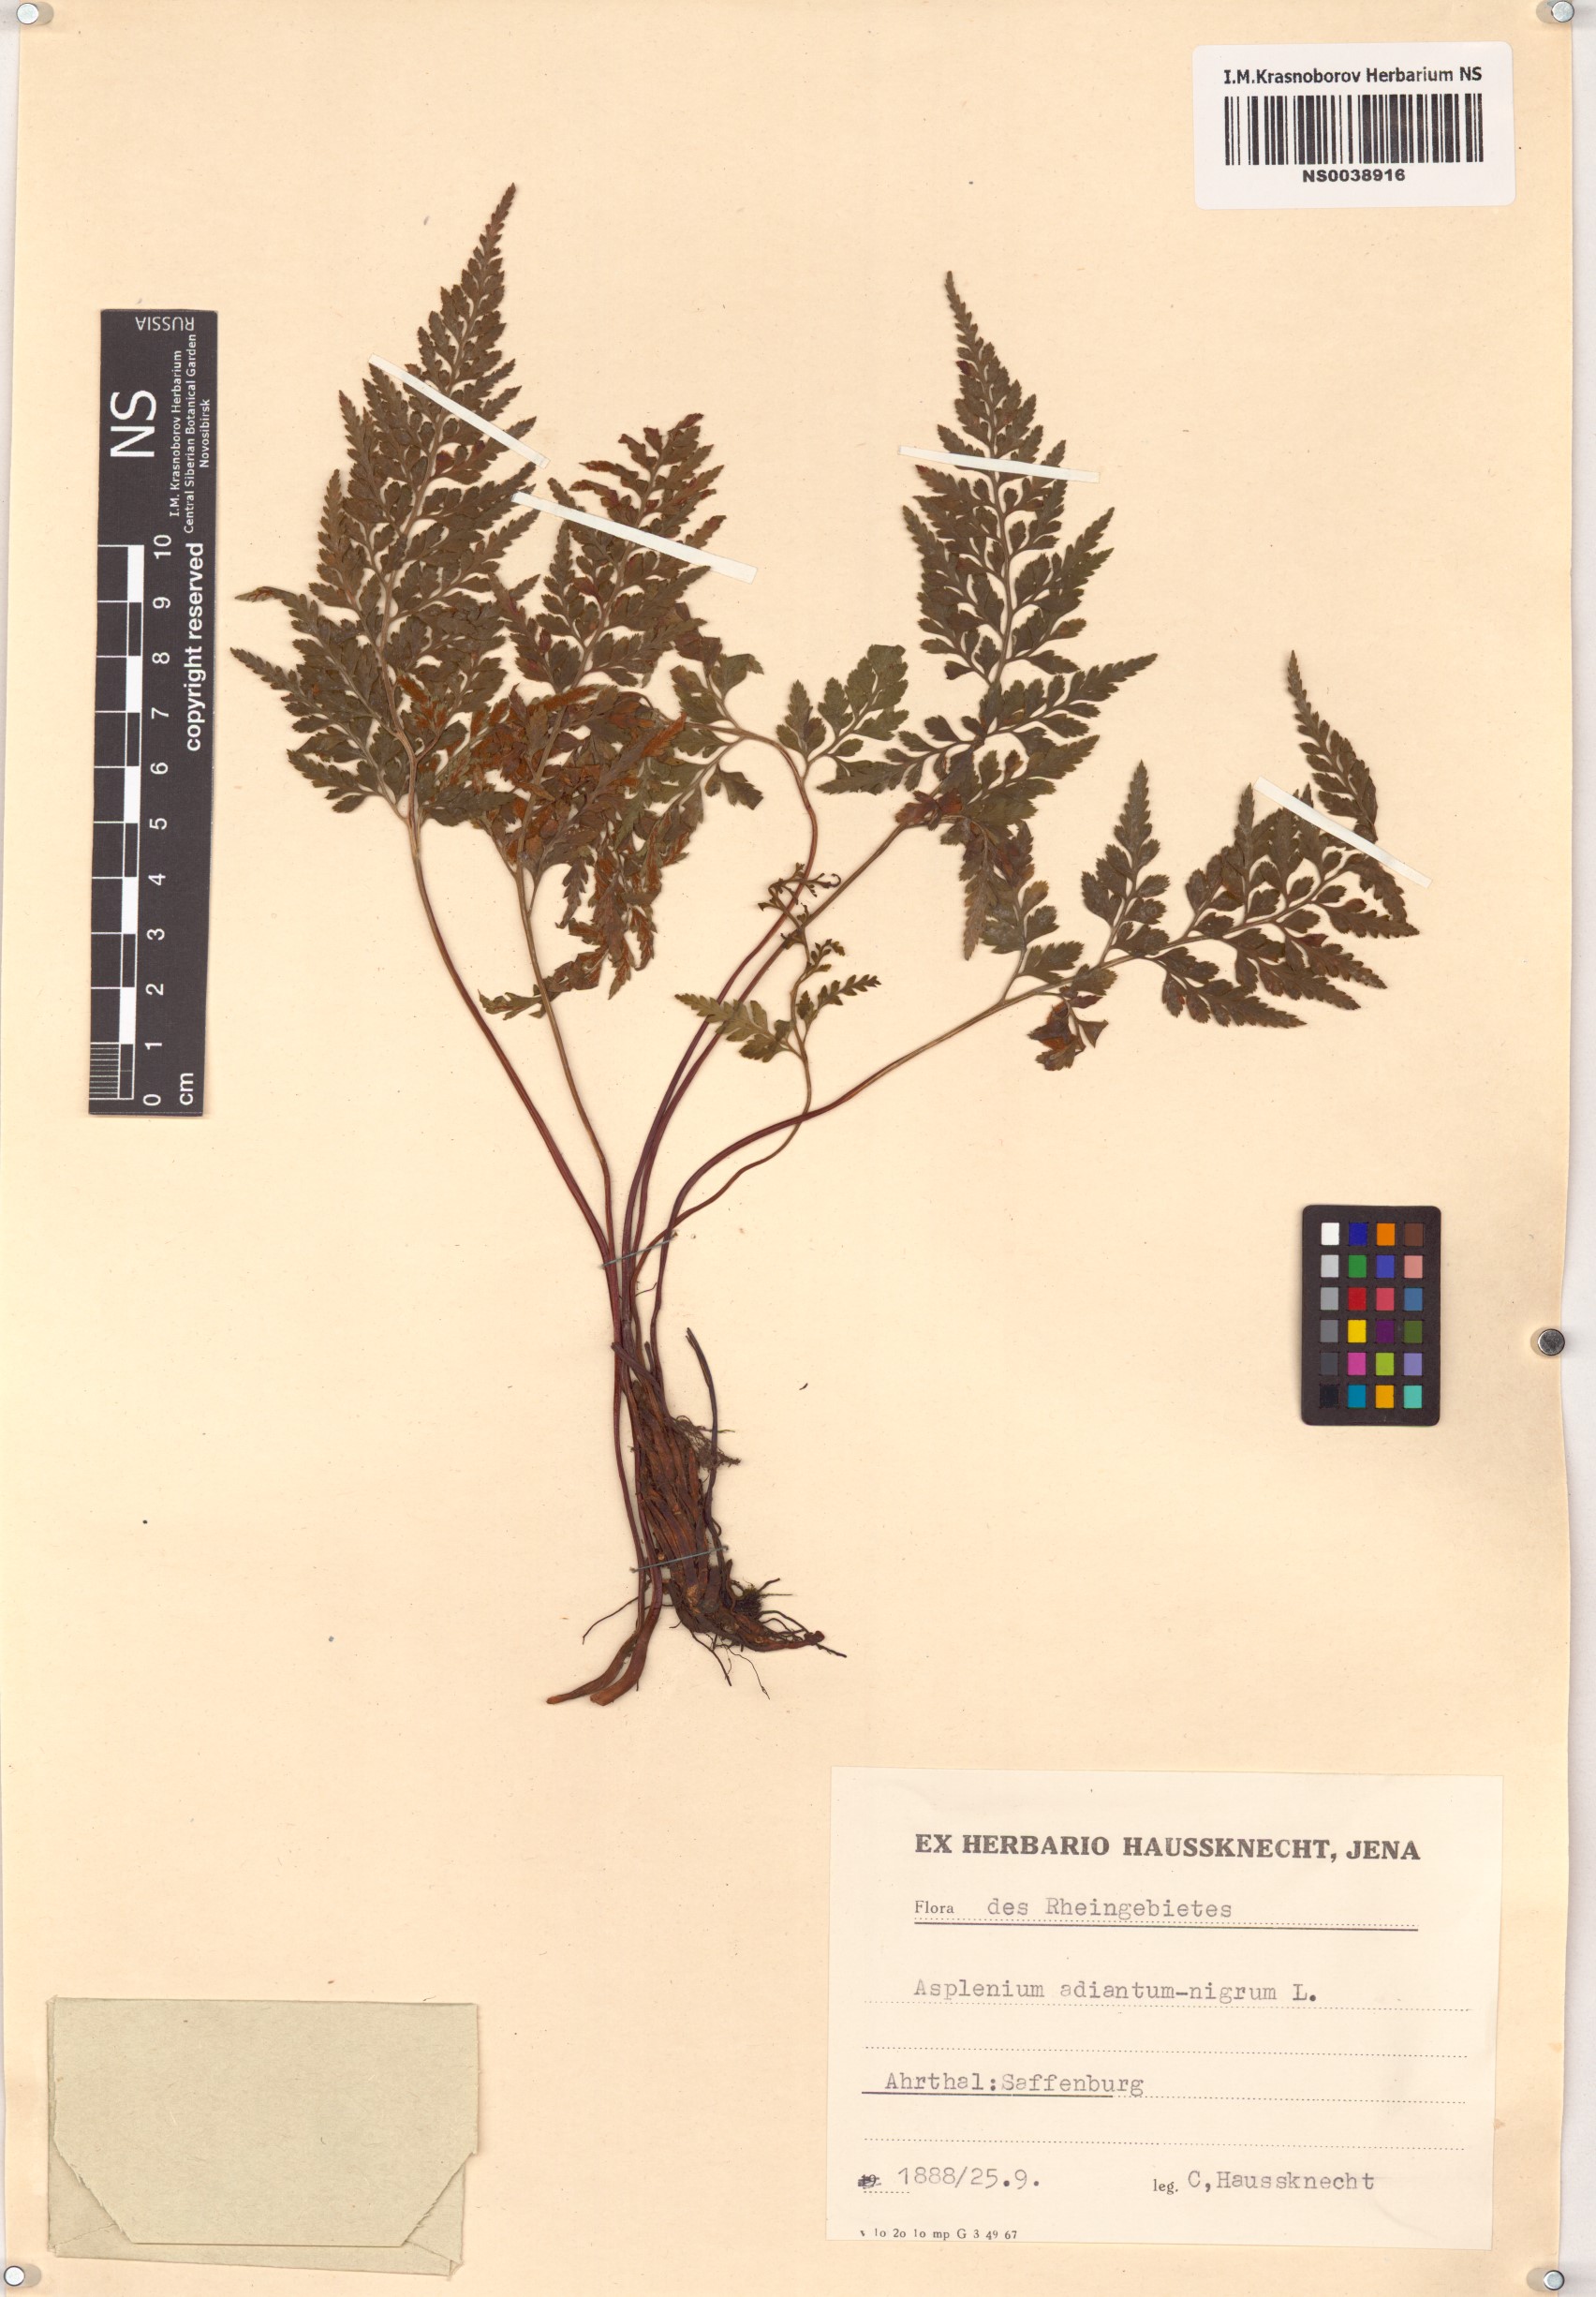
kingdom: Plantae
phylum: Tracheophyta
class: Polypodiopsida
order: Polypodiales
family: Aspleniaceae
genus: Asplenium
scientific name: Asplenium adiantum-nigrum
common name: Black spleenwort
